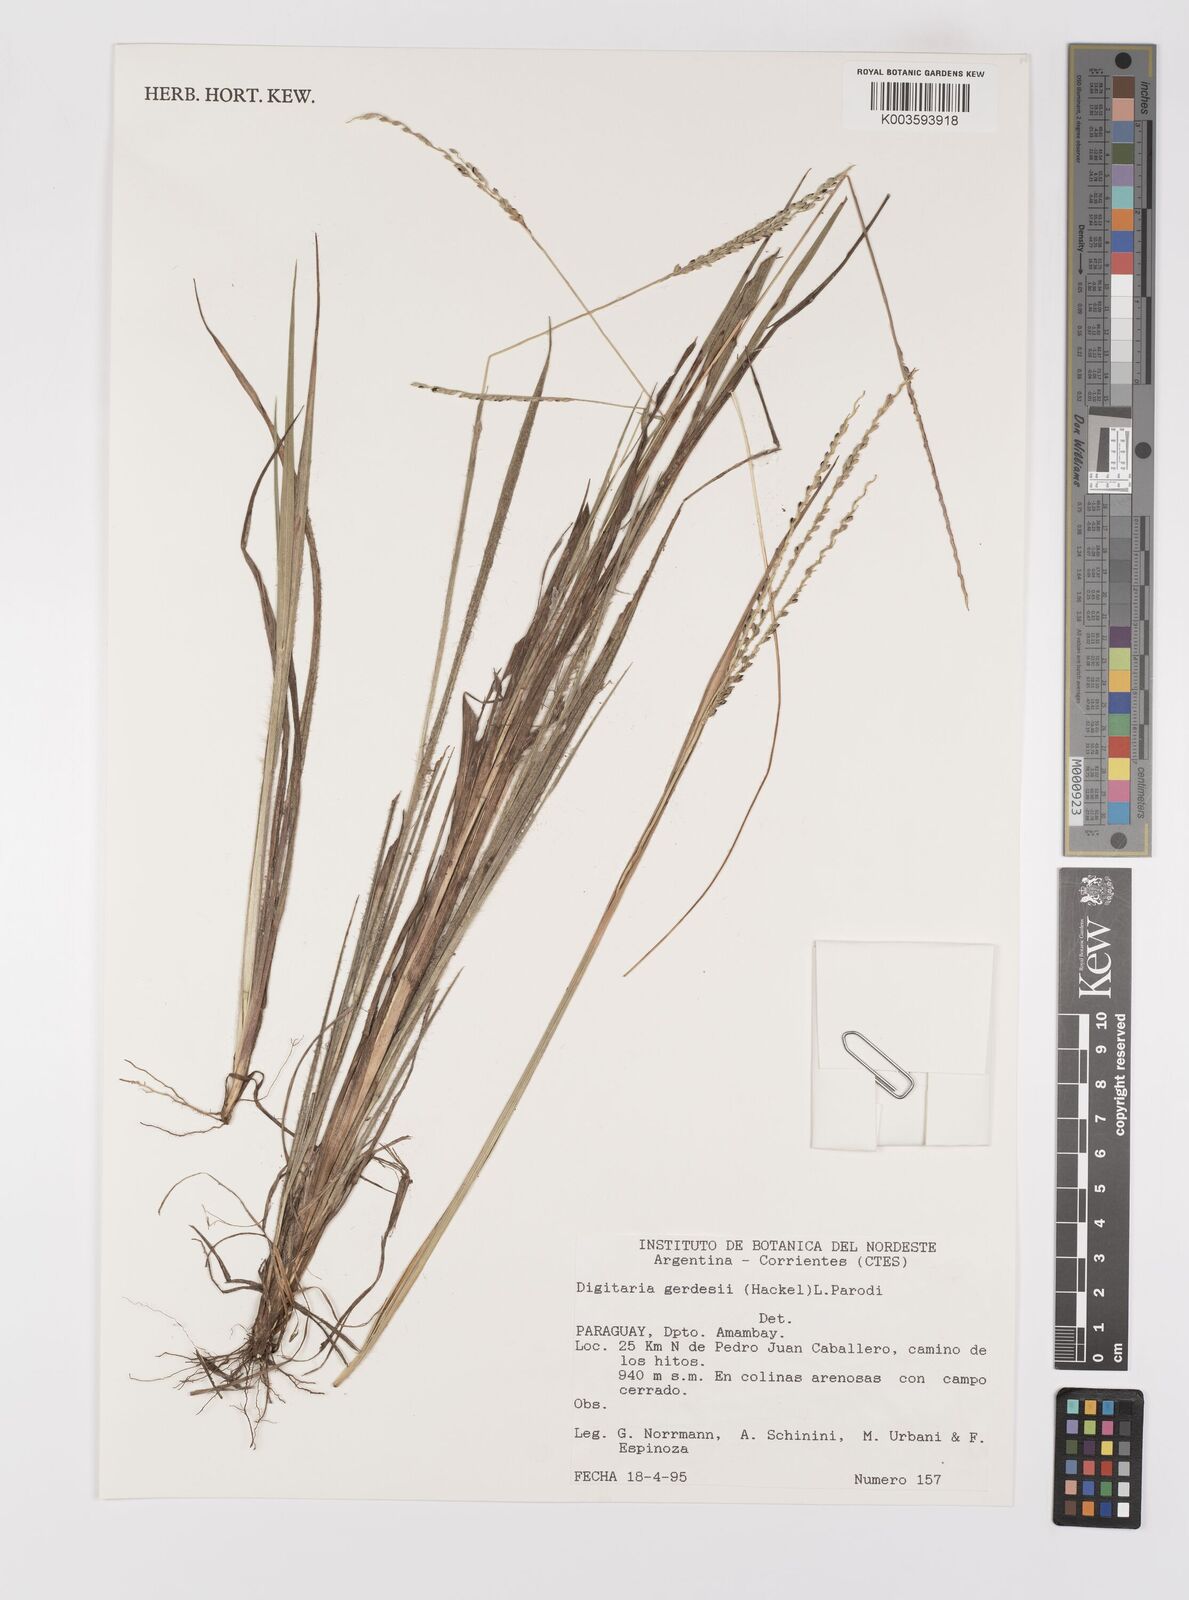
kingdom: Plantae
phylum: Tracheophyta
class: Liliopsida
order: Poales
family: Poaceae
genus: Digitaria
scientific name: Digitaria gerdesii
